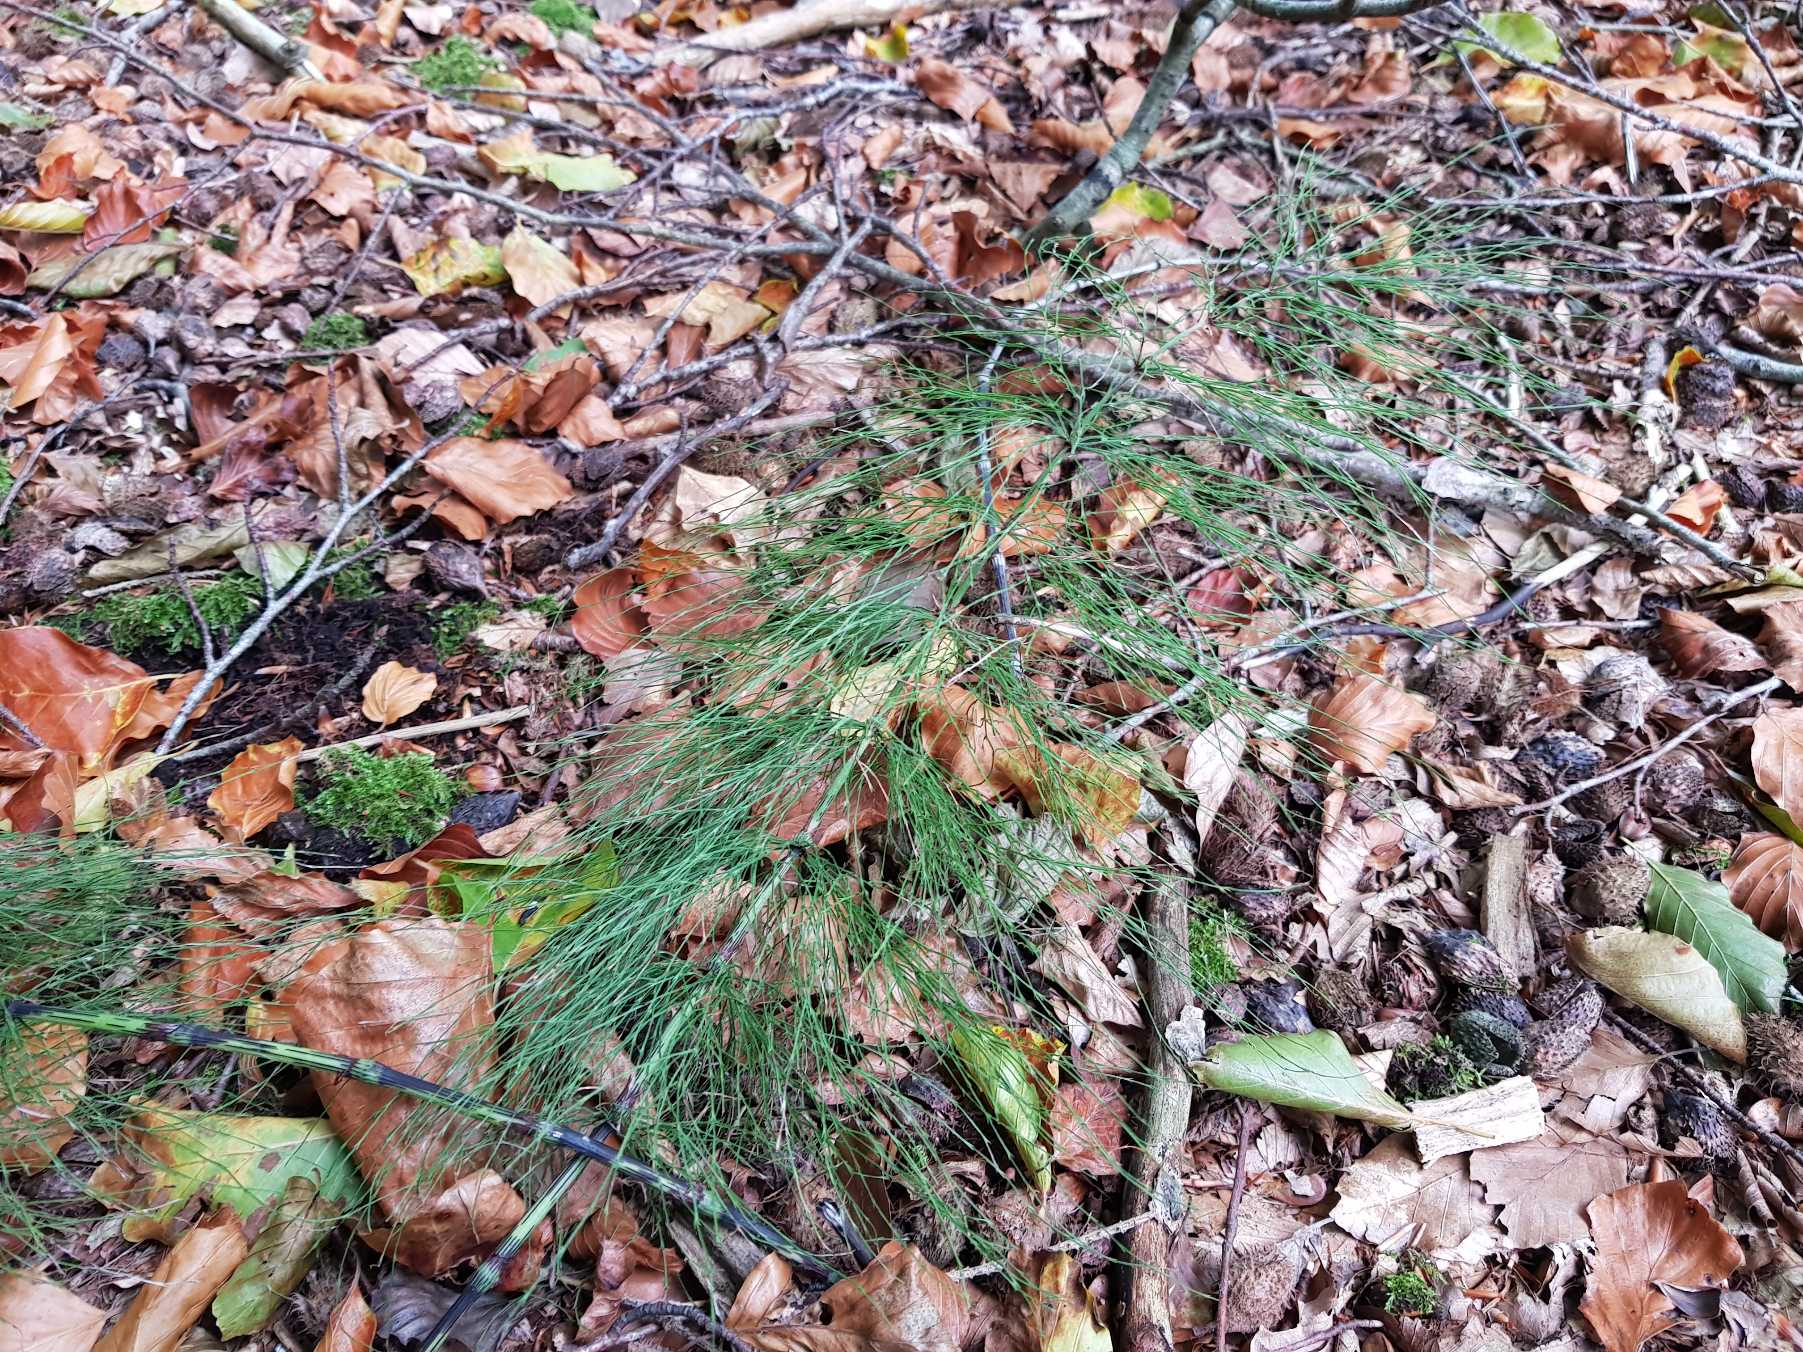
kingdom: Plantae
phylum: Tracheophyta
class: Polypodiopsida
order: Equisetales
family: Equisetaceae
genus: Equisetum
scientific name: Equisetum sylvaticum
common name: Skov-padderok
